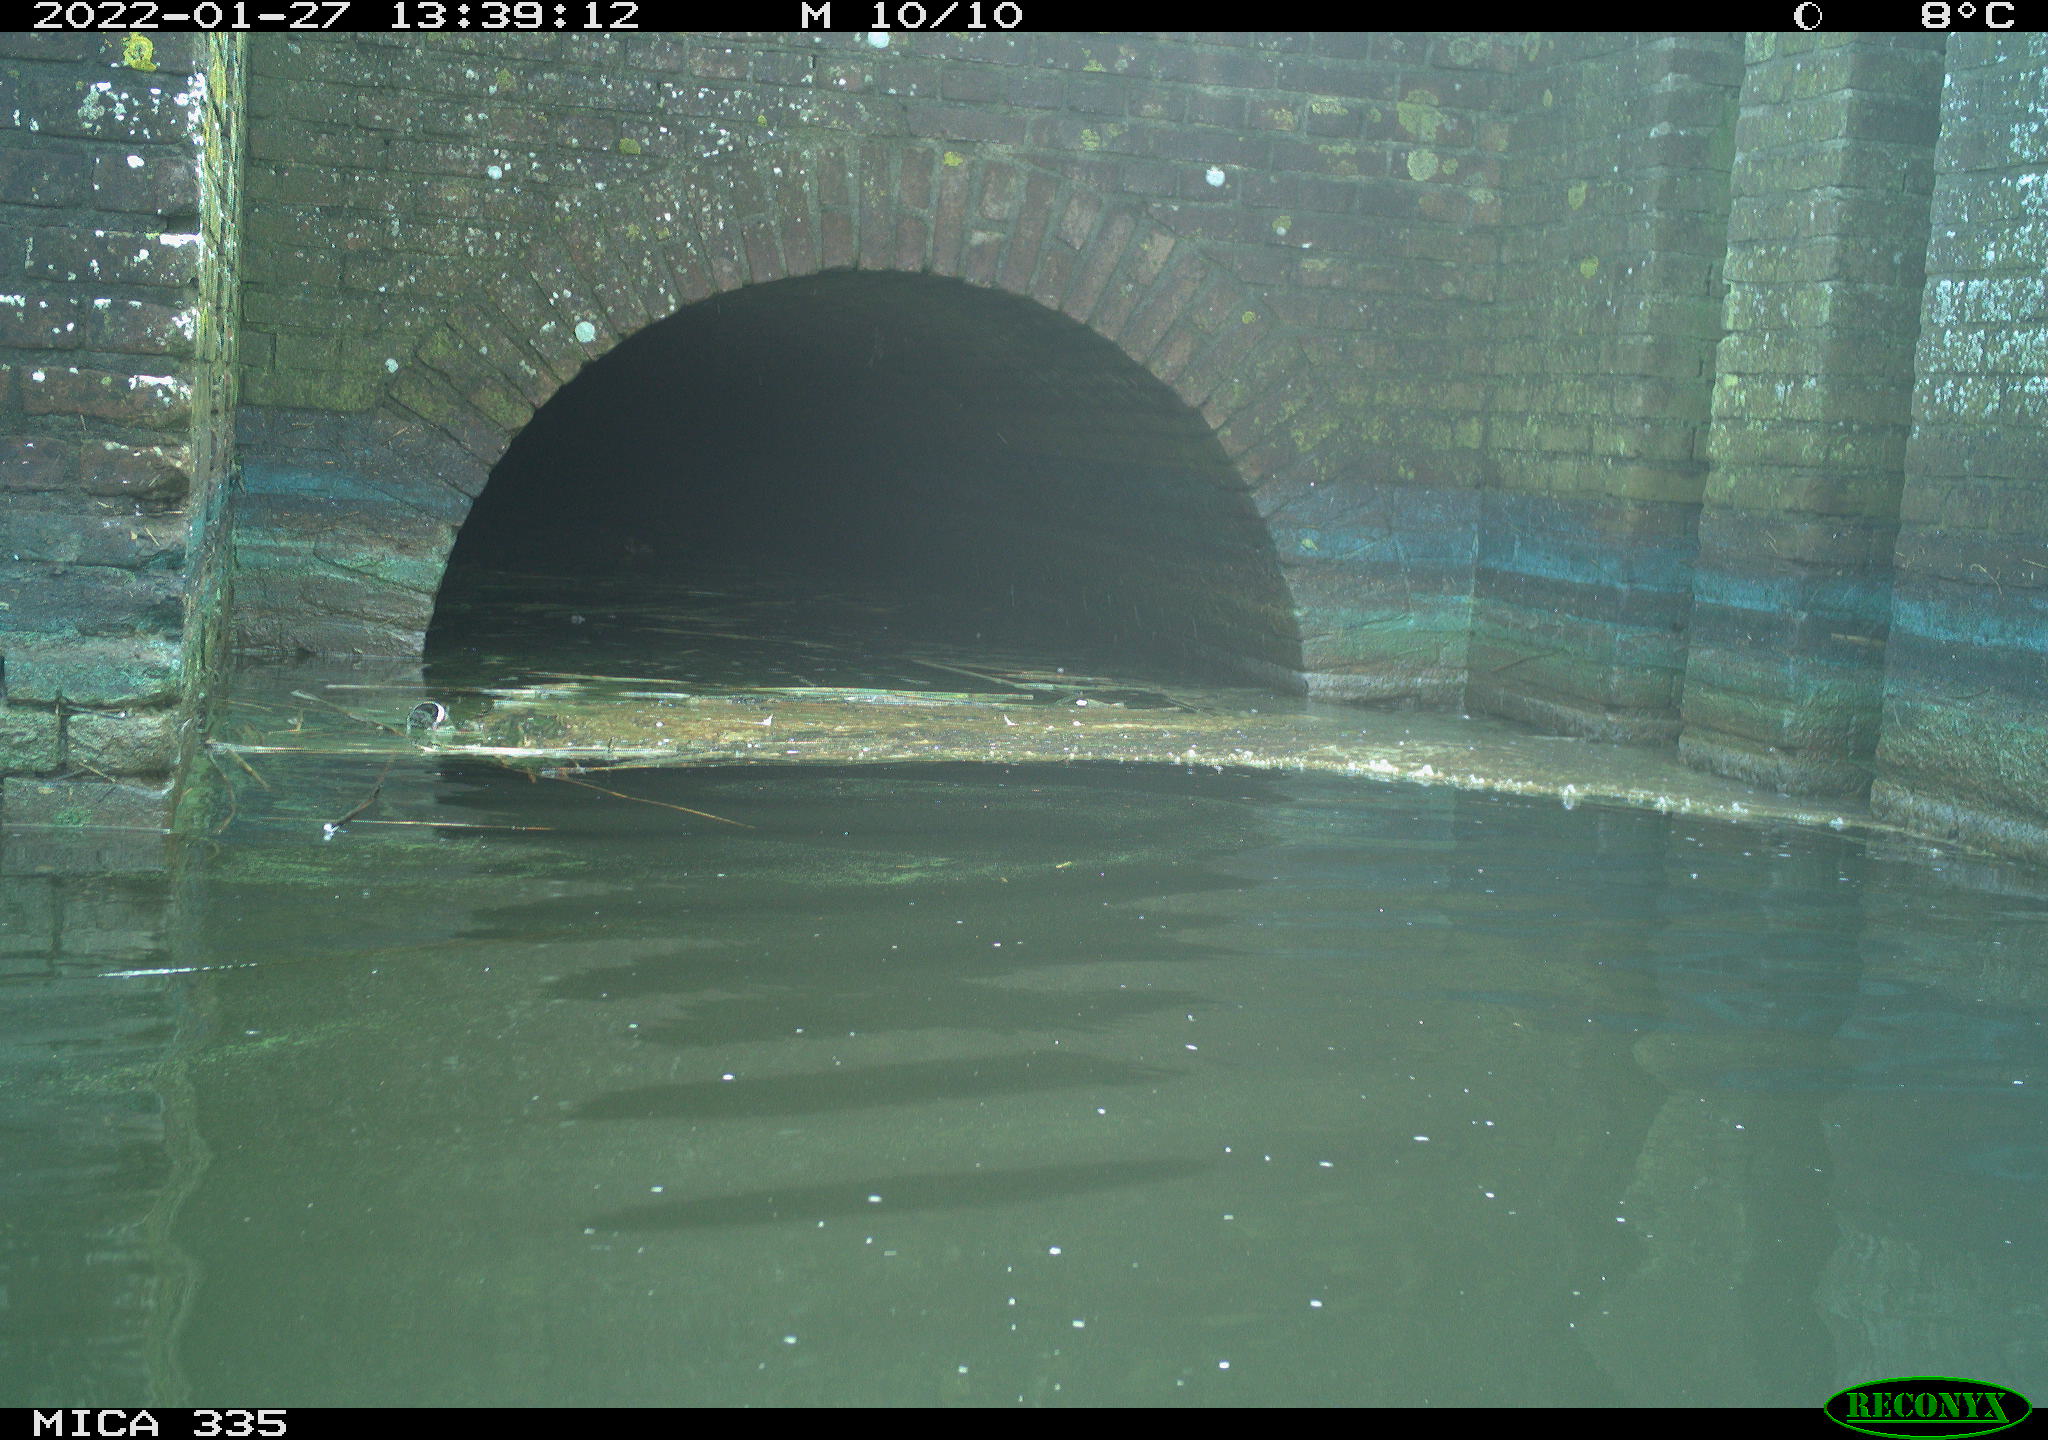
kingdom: Animalia
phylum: Chordata
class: Aves
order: Anseriformes
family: Anatidae
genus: Anas
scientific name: Anas platyrhynchos
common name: Mallard
